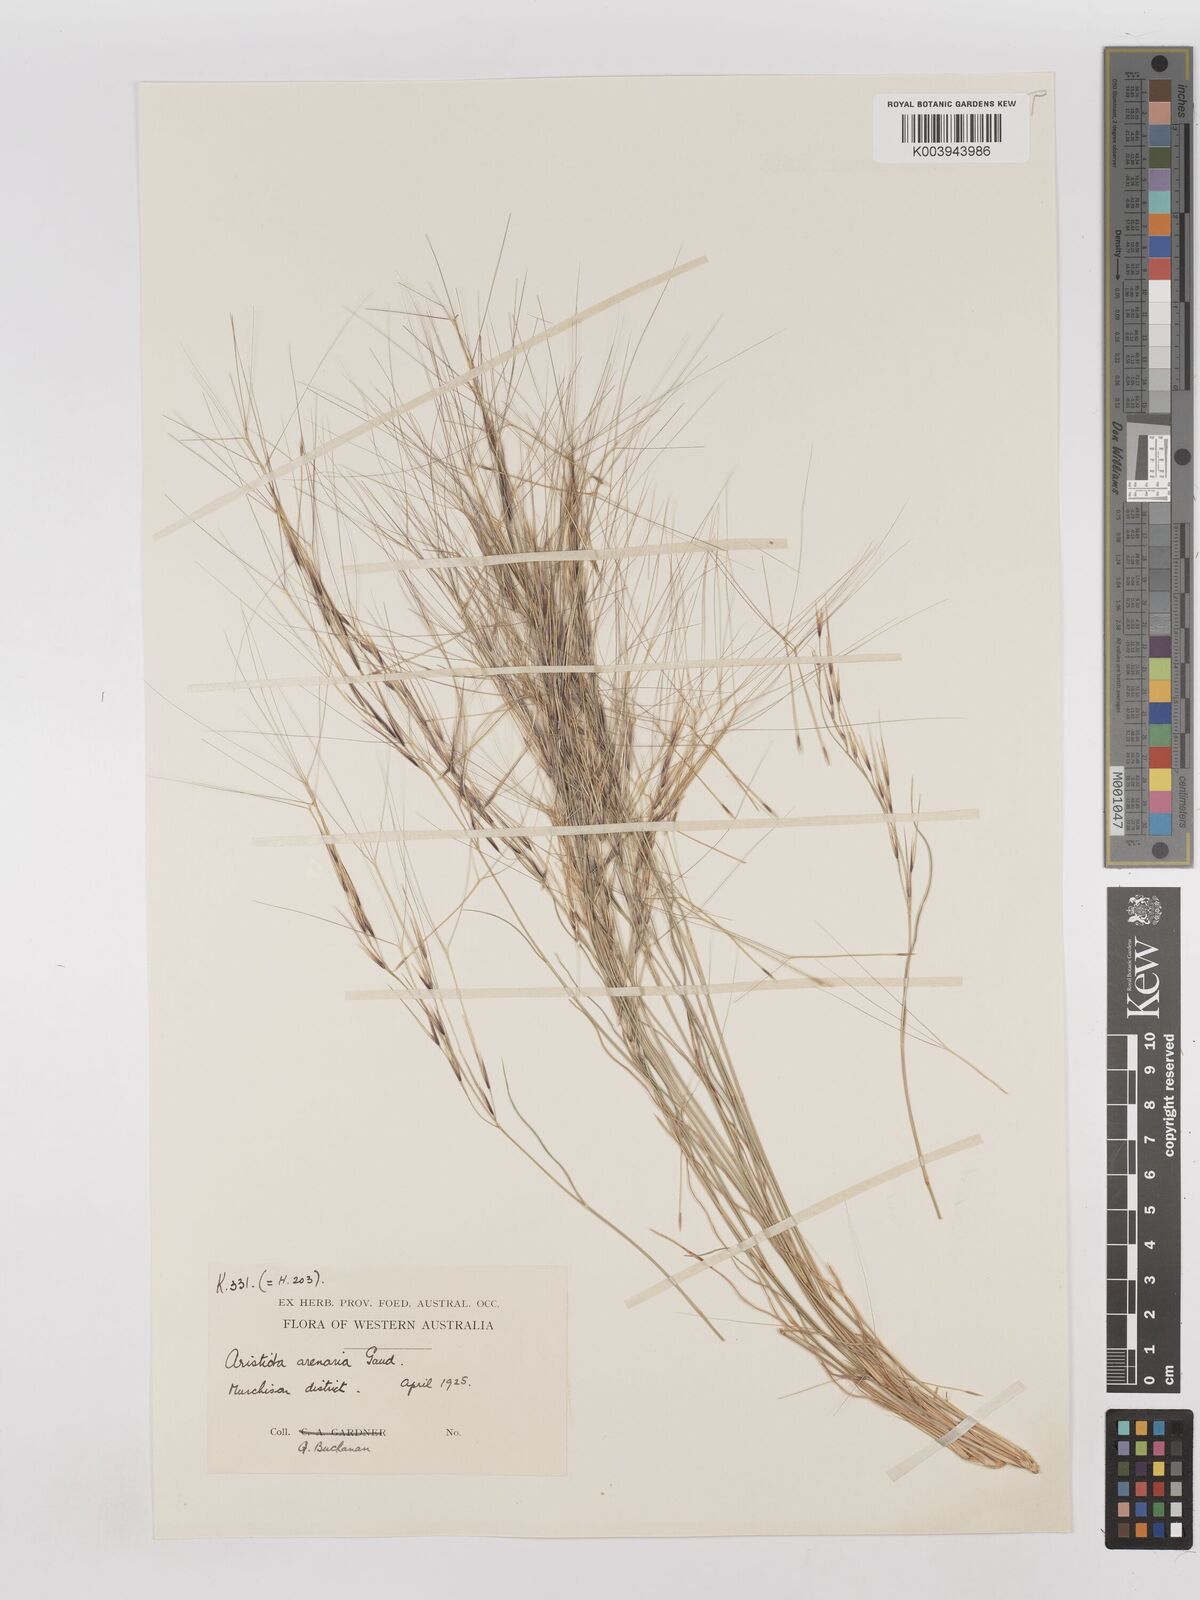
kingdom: Plantae
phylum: Tracheophyta
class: Liliopsida
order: Poales
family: Poaceae
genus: Aristida
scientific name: Aristida contorta
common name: Bunch kerosene grass
